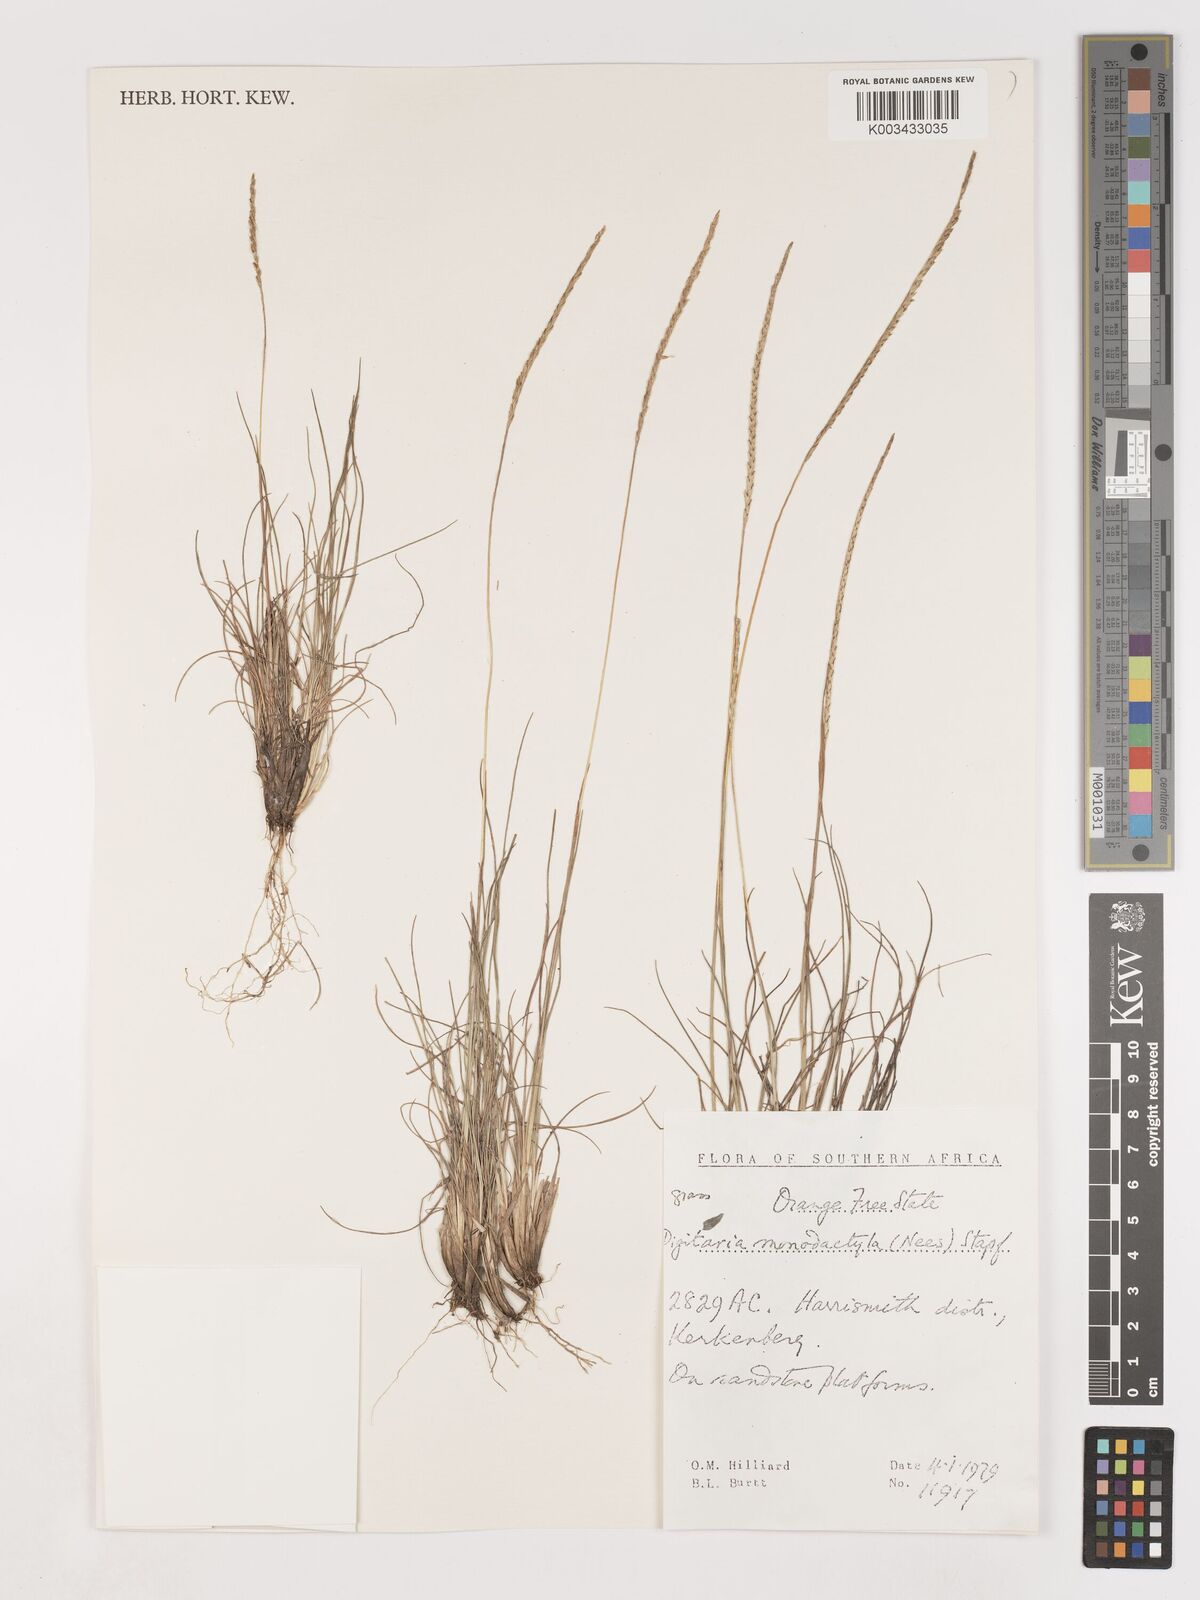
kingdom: Plantae
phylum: Tracheophyta
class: Liliopsida
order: Poales
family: Poaceae
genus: Digitaria
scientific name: Digitaria monodactyla
